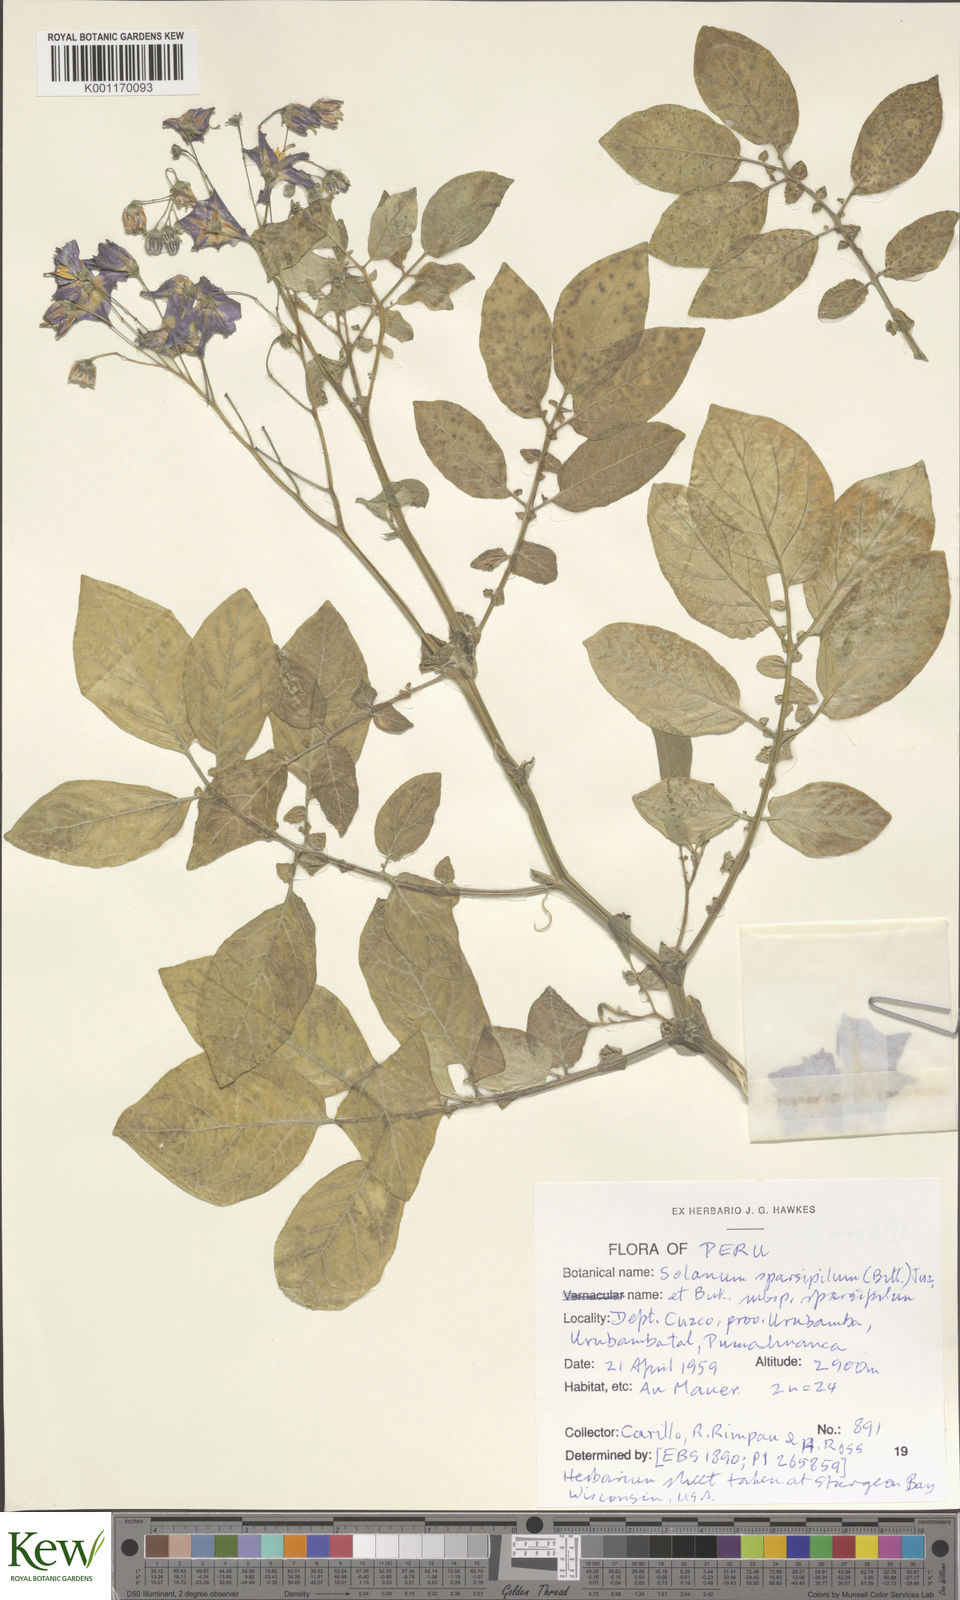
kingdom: Plantae
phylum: Tracheophyta
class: Magnoliopsida
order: Solanales
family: Solanaceae
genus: Solanum
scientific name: Solanum brevicaule
